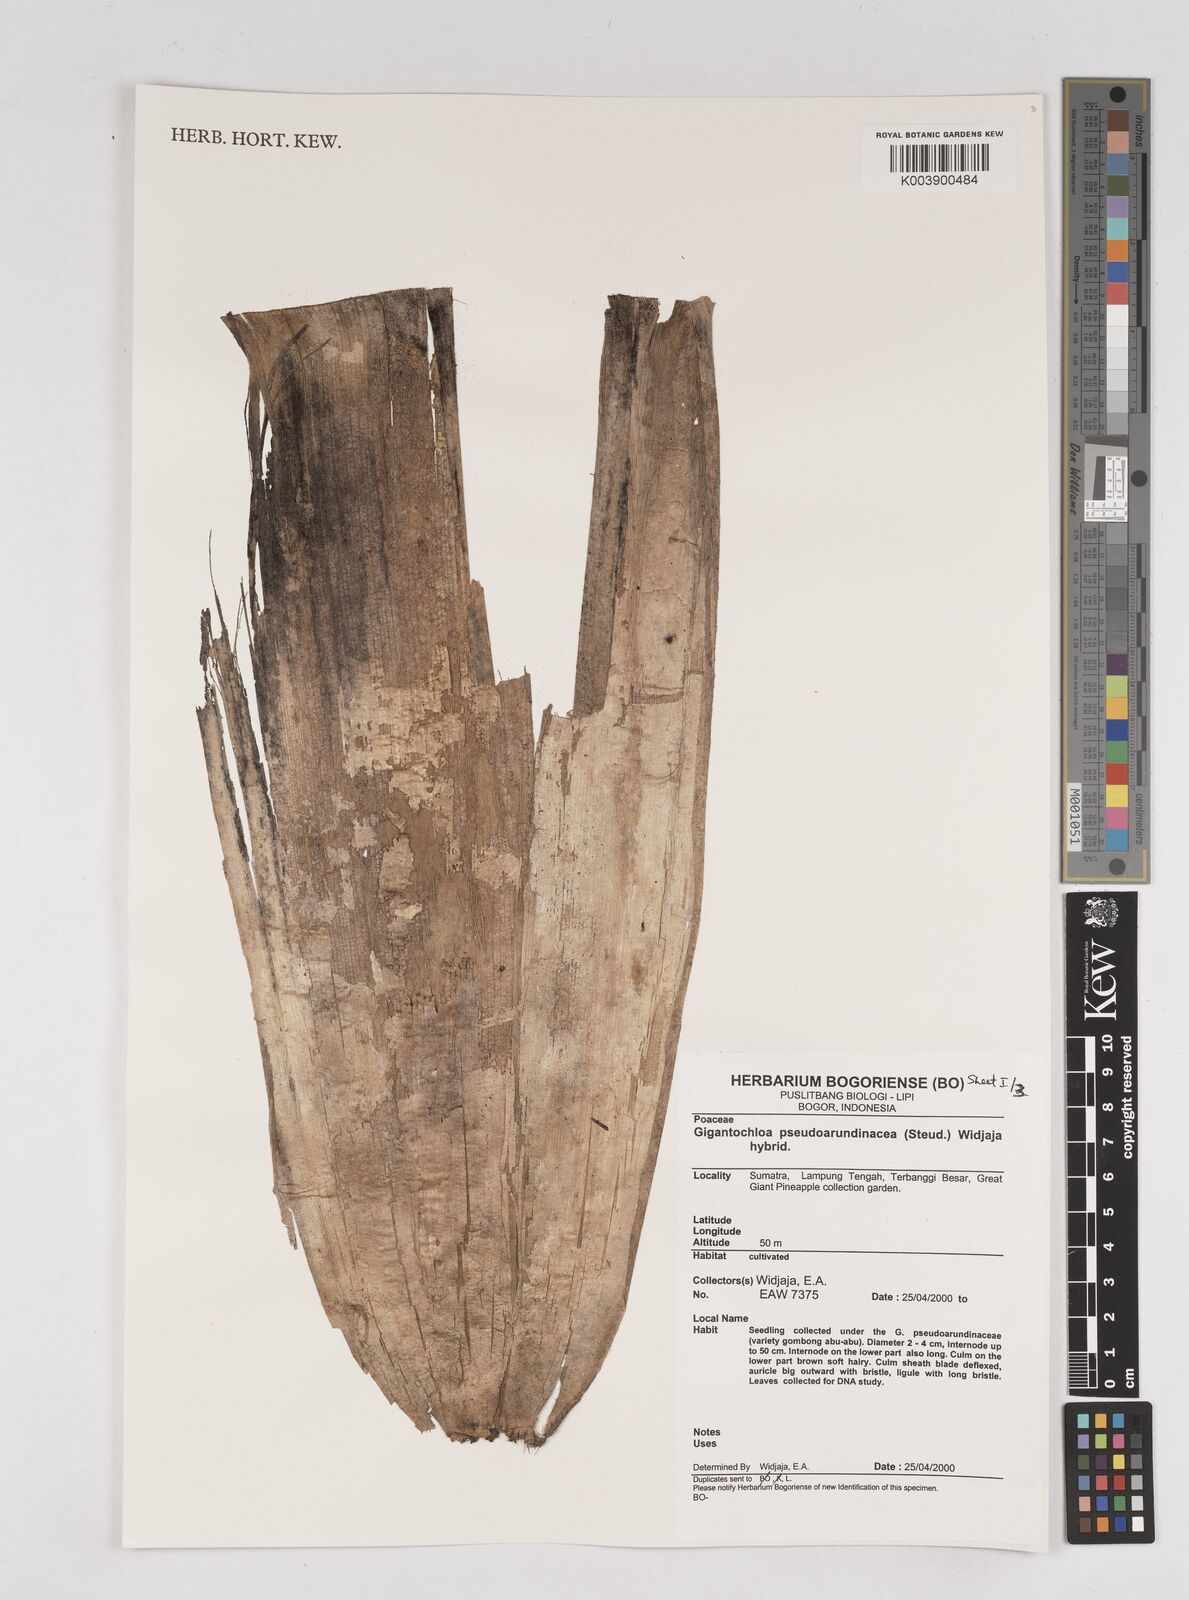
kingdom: Plantae
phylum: Tracheophyta
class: Liliopsida
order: Poales
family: Poaceae
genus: Gigantochloa
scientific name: Gigantochloa verticillata
